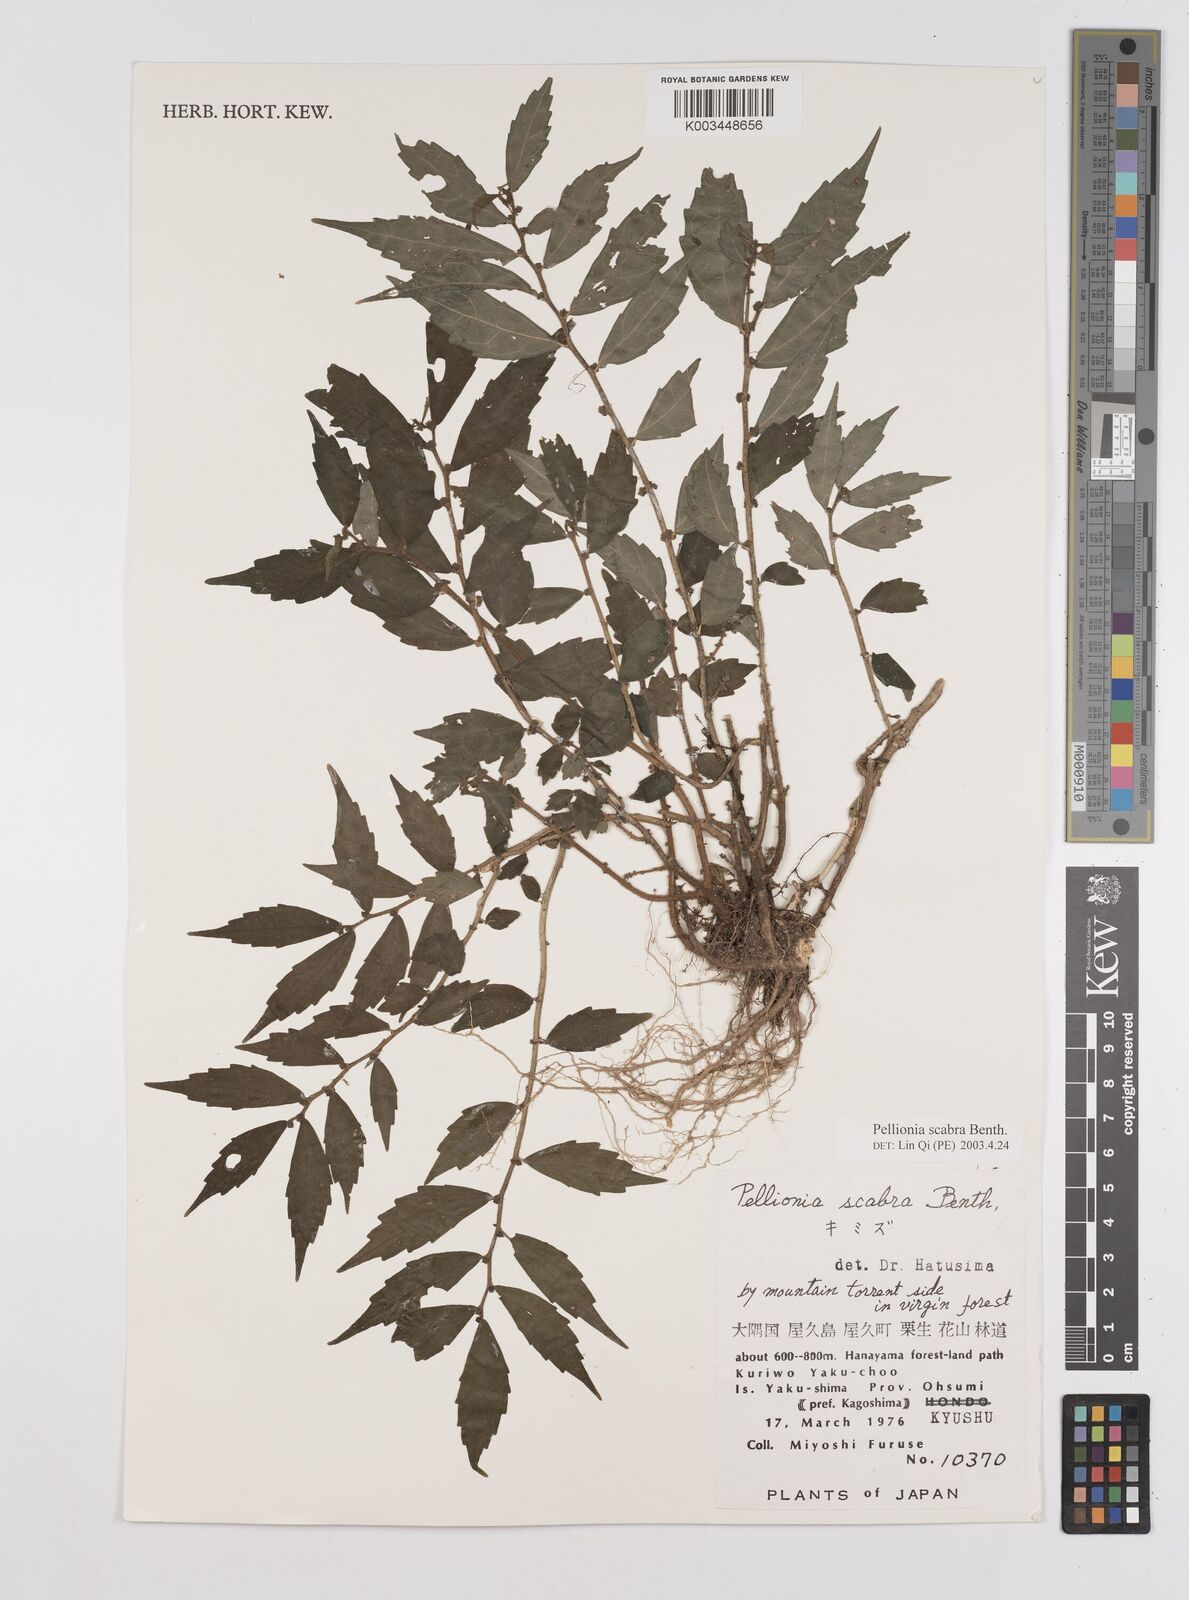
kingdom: Plantae
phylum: Tracheophyta
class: Magnoliopsida
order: Rosales
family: Urticaceae
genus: Elatostema
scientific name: Elatostema
